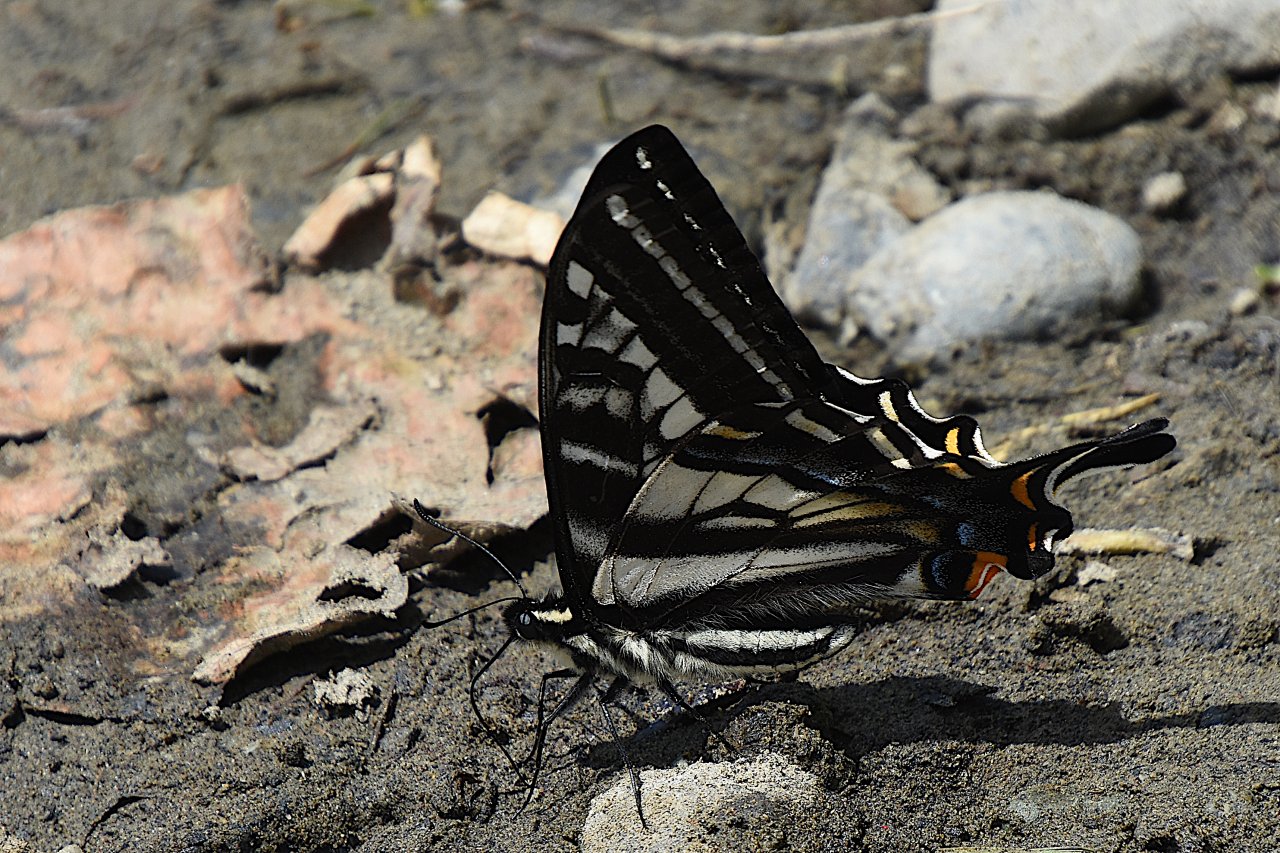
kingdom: Animalia
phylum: Arthropoda
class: Insecta
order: Lepidoptera
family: Papilionidae
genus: Pterourus
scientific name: Pterourus eurymedon
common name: Pale Swallowtail
